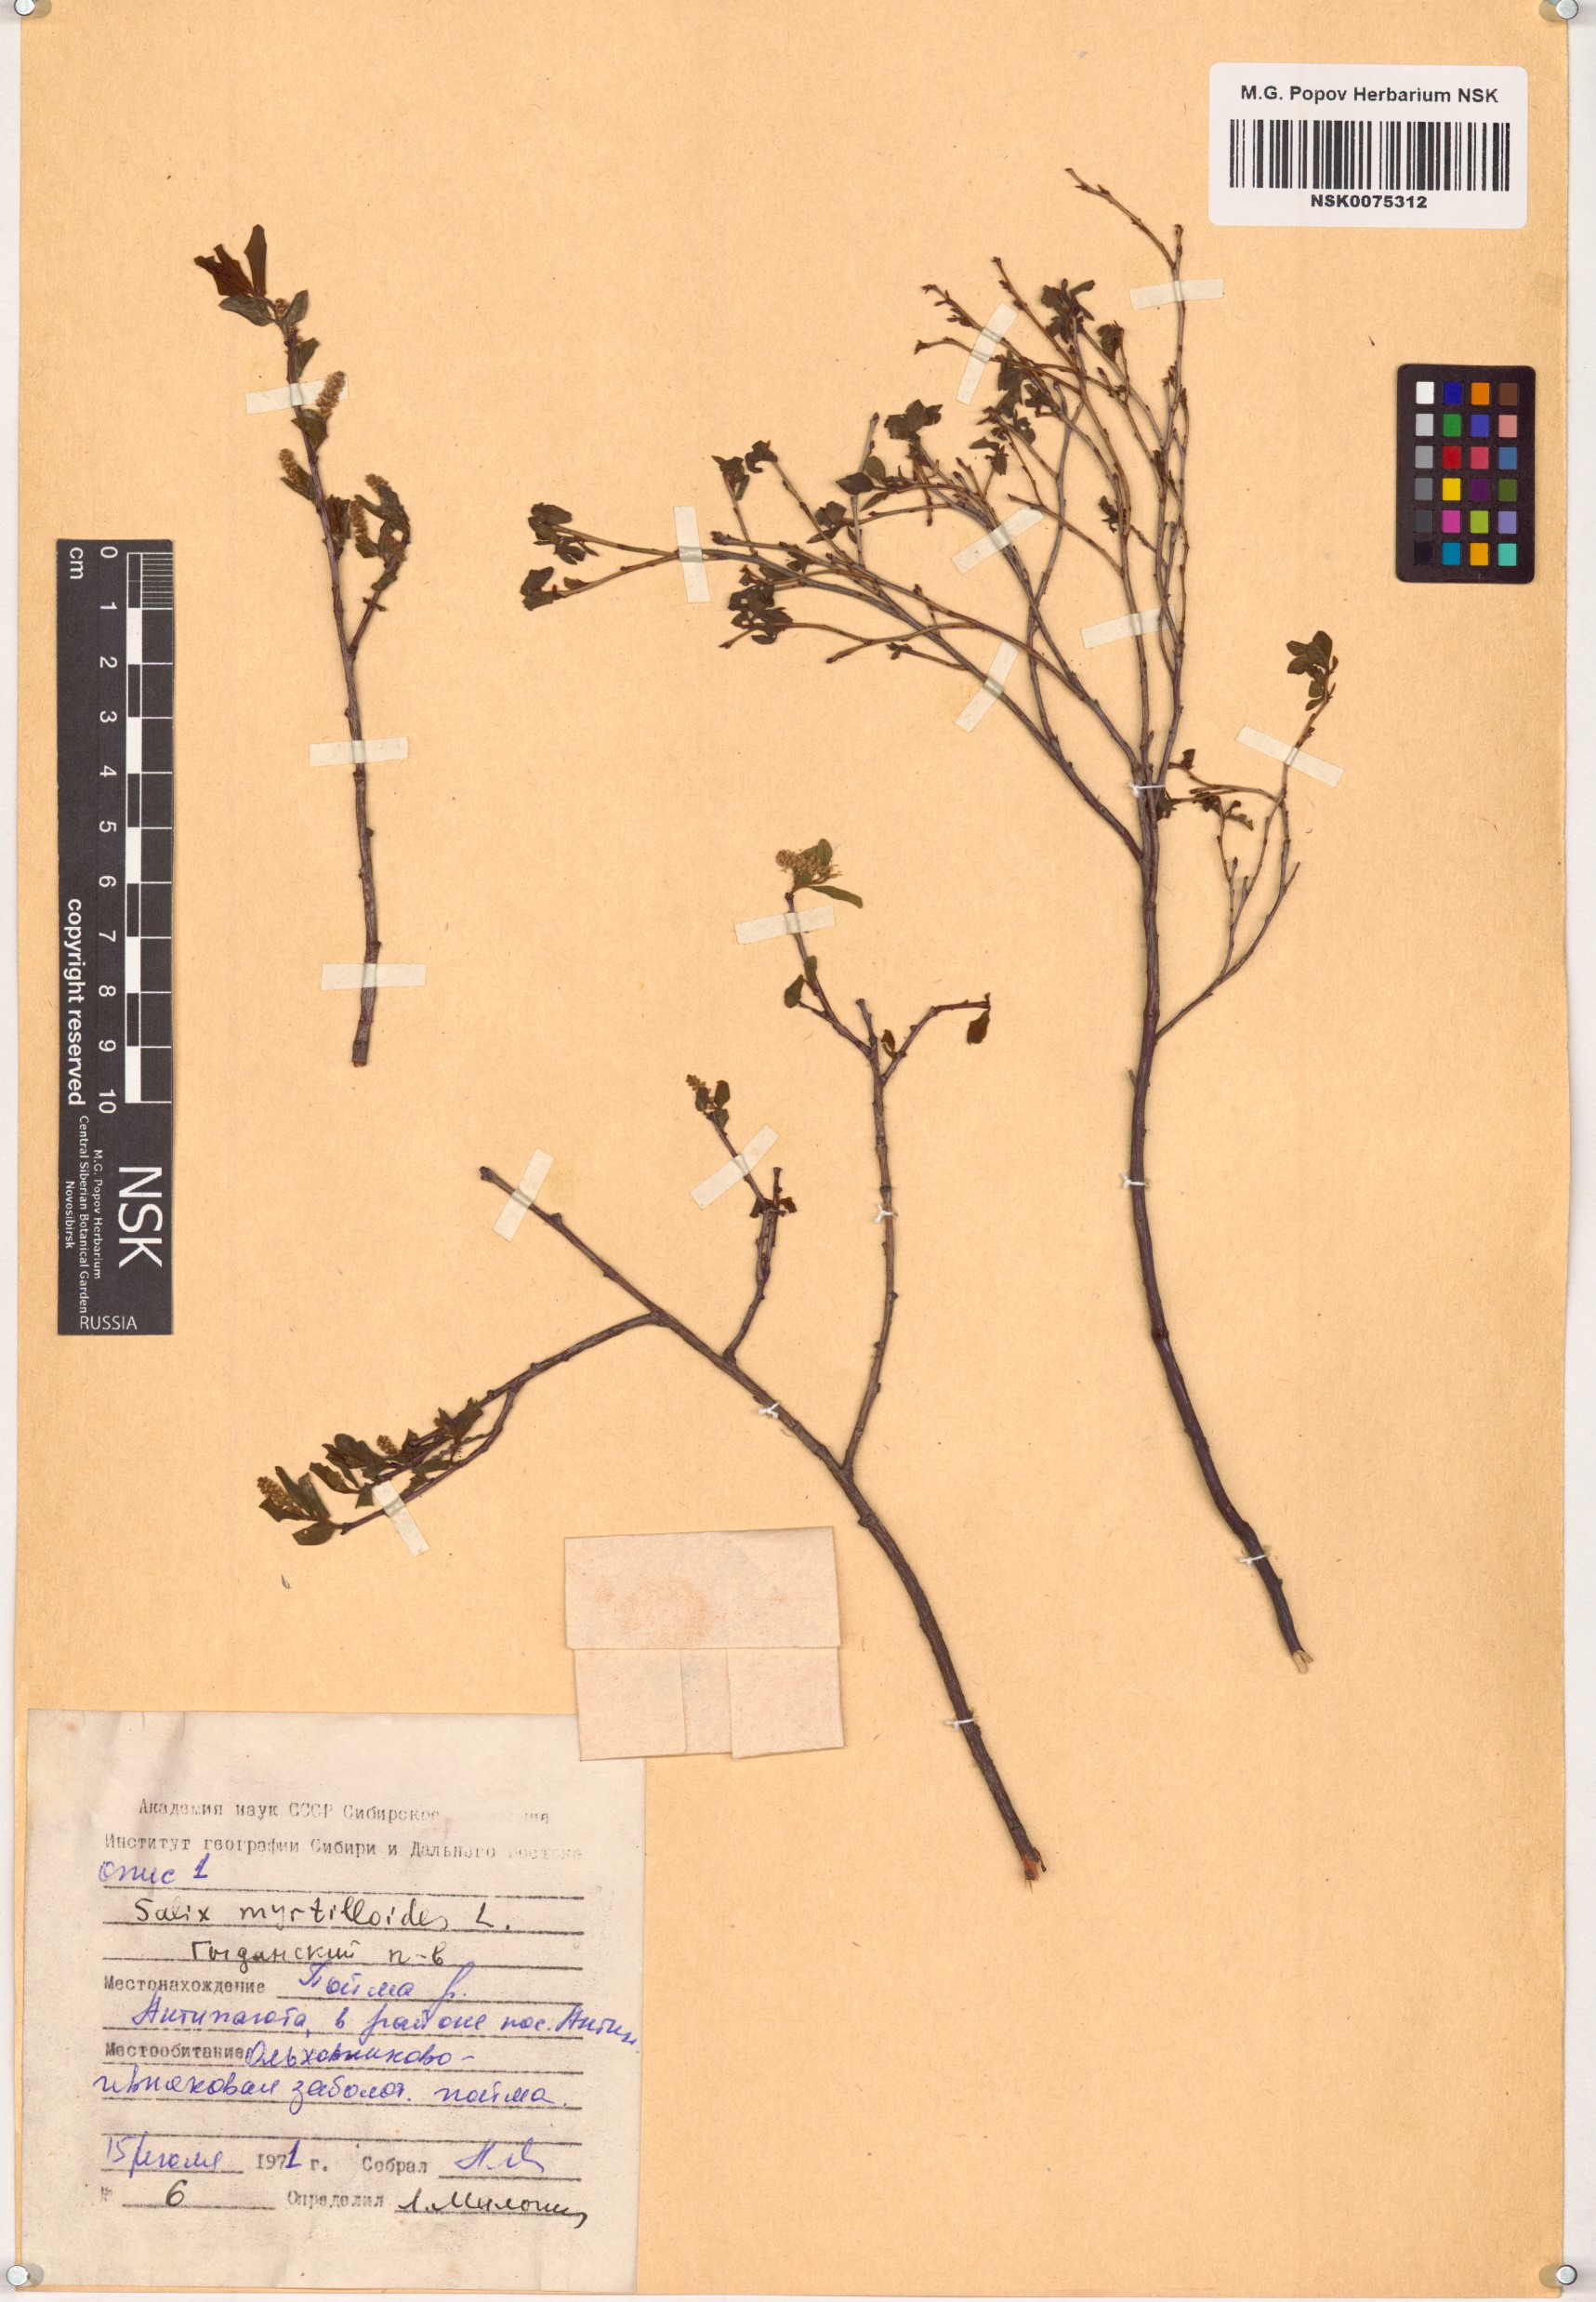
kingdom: Plantae
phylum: Tracheophyta
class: Magnoliopsida
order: Malpighiales
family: Salicaceae
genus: Salix
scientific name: Salix myrtilloides
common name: Myrtle-leaved willow
